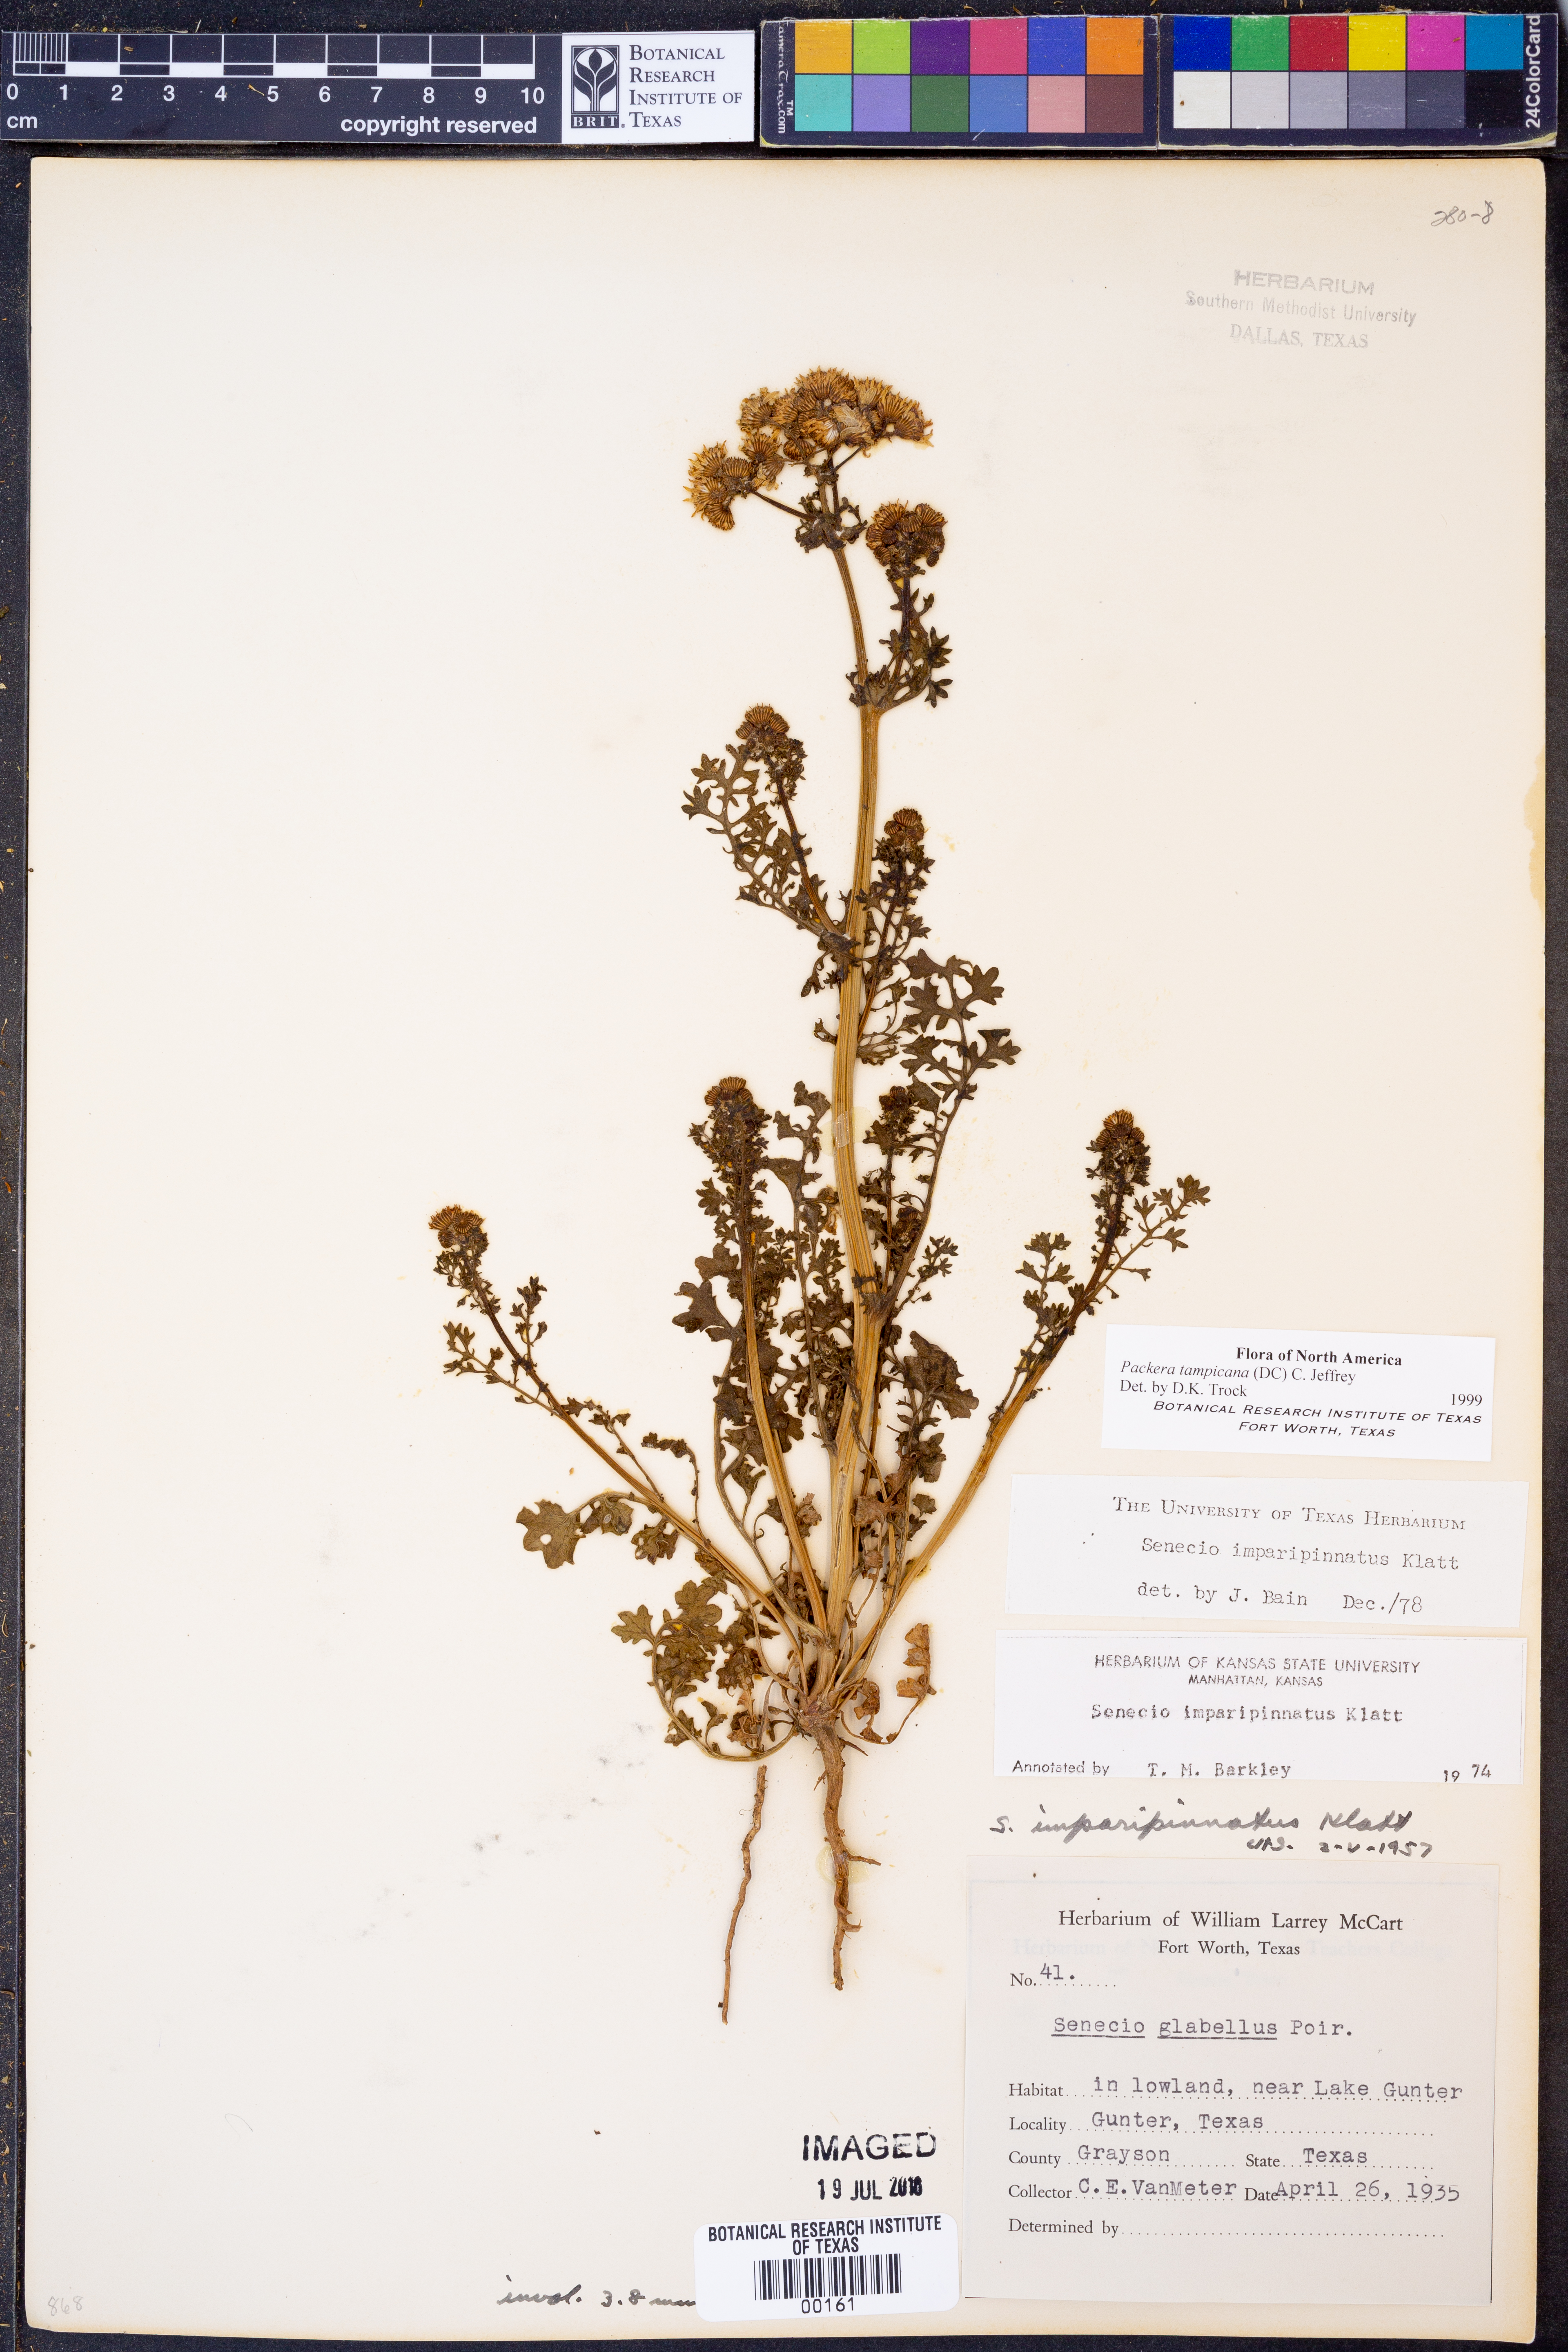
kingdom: Plantae
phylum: Tracheophyta
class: Magnoliopsida
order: Asterales
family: Asteraceae
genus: Packera
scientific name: Packera tampicana
